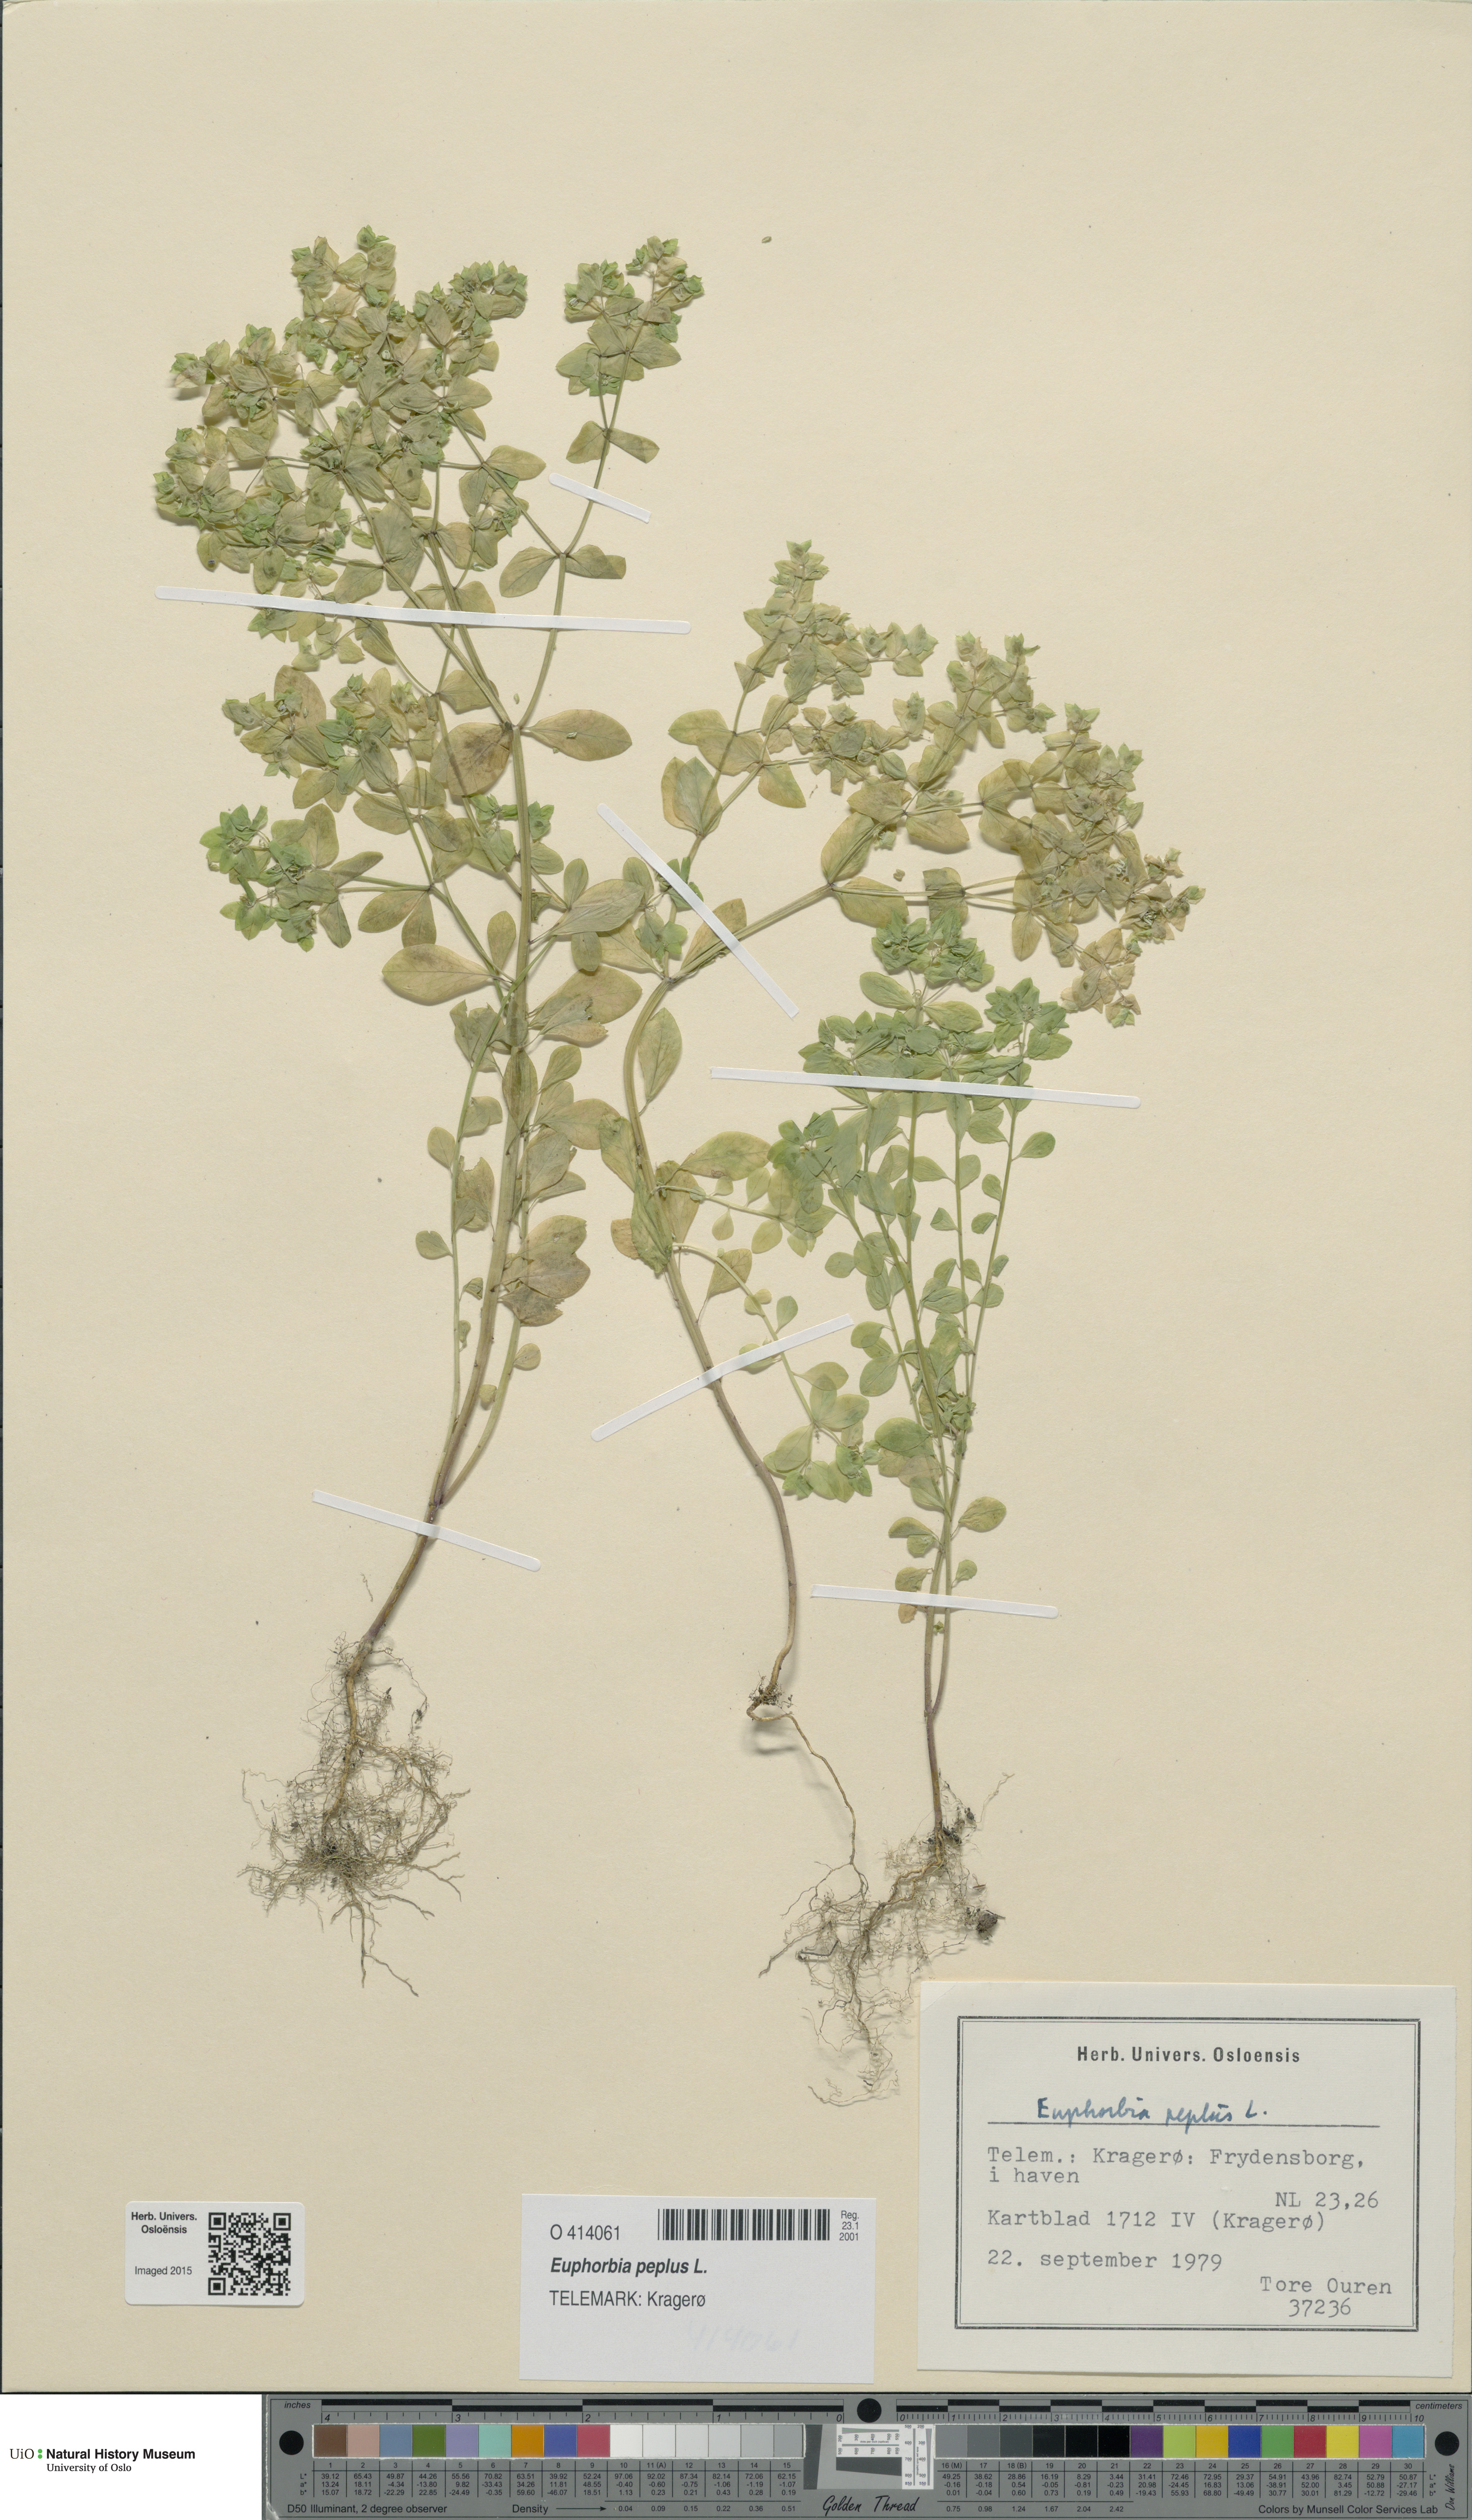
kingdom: Plantae
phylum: Tracheophyta
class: Magnoliopsida
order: Malpighiales
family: Euphorbiaceae
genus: Euphorbia
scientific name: Euphorbia peplus
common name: Petty spurge
